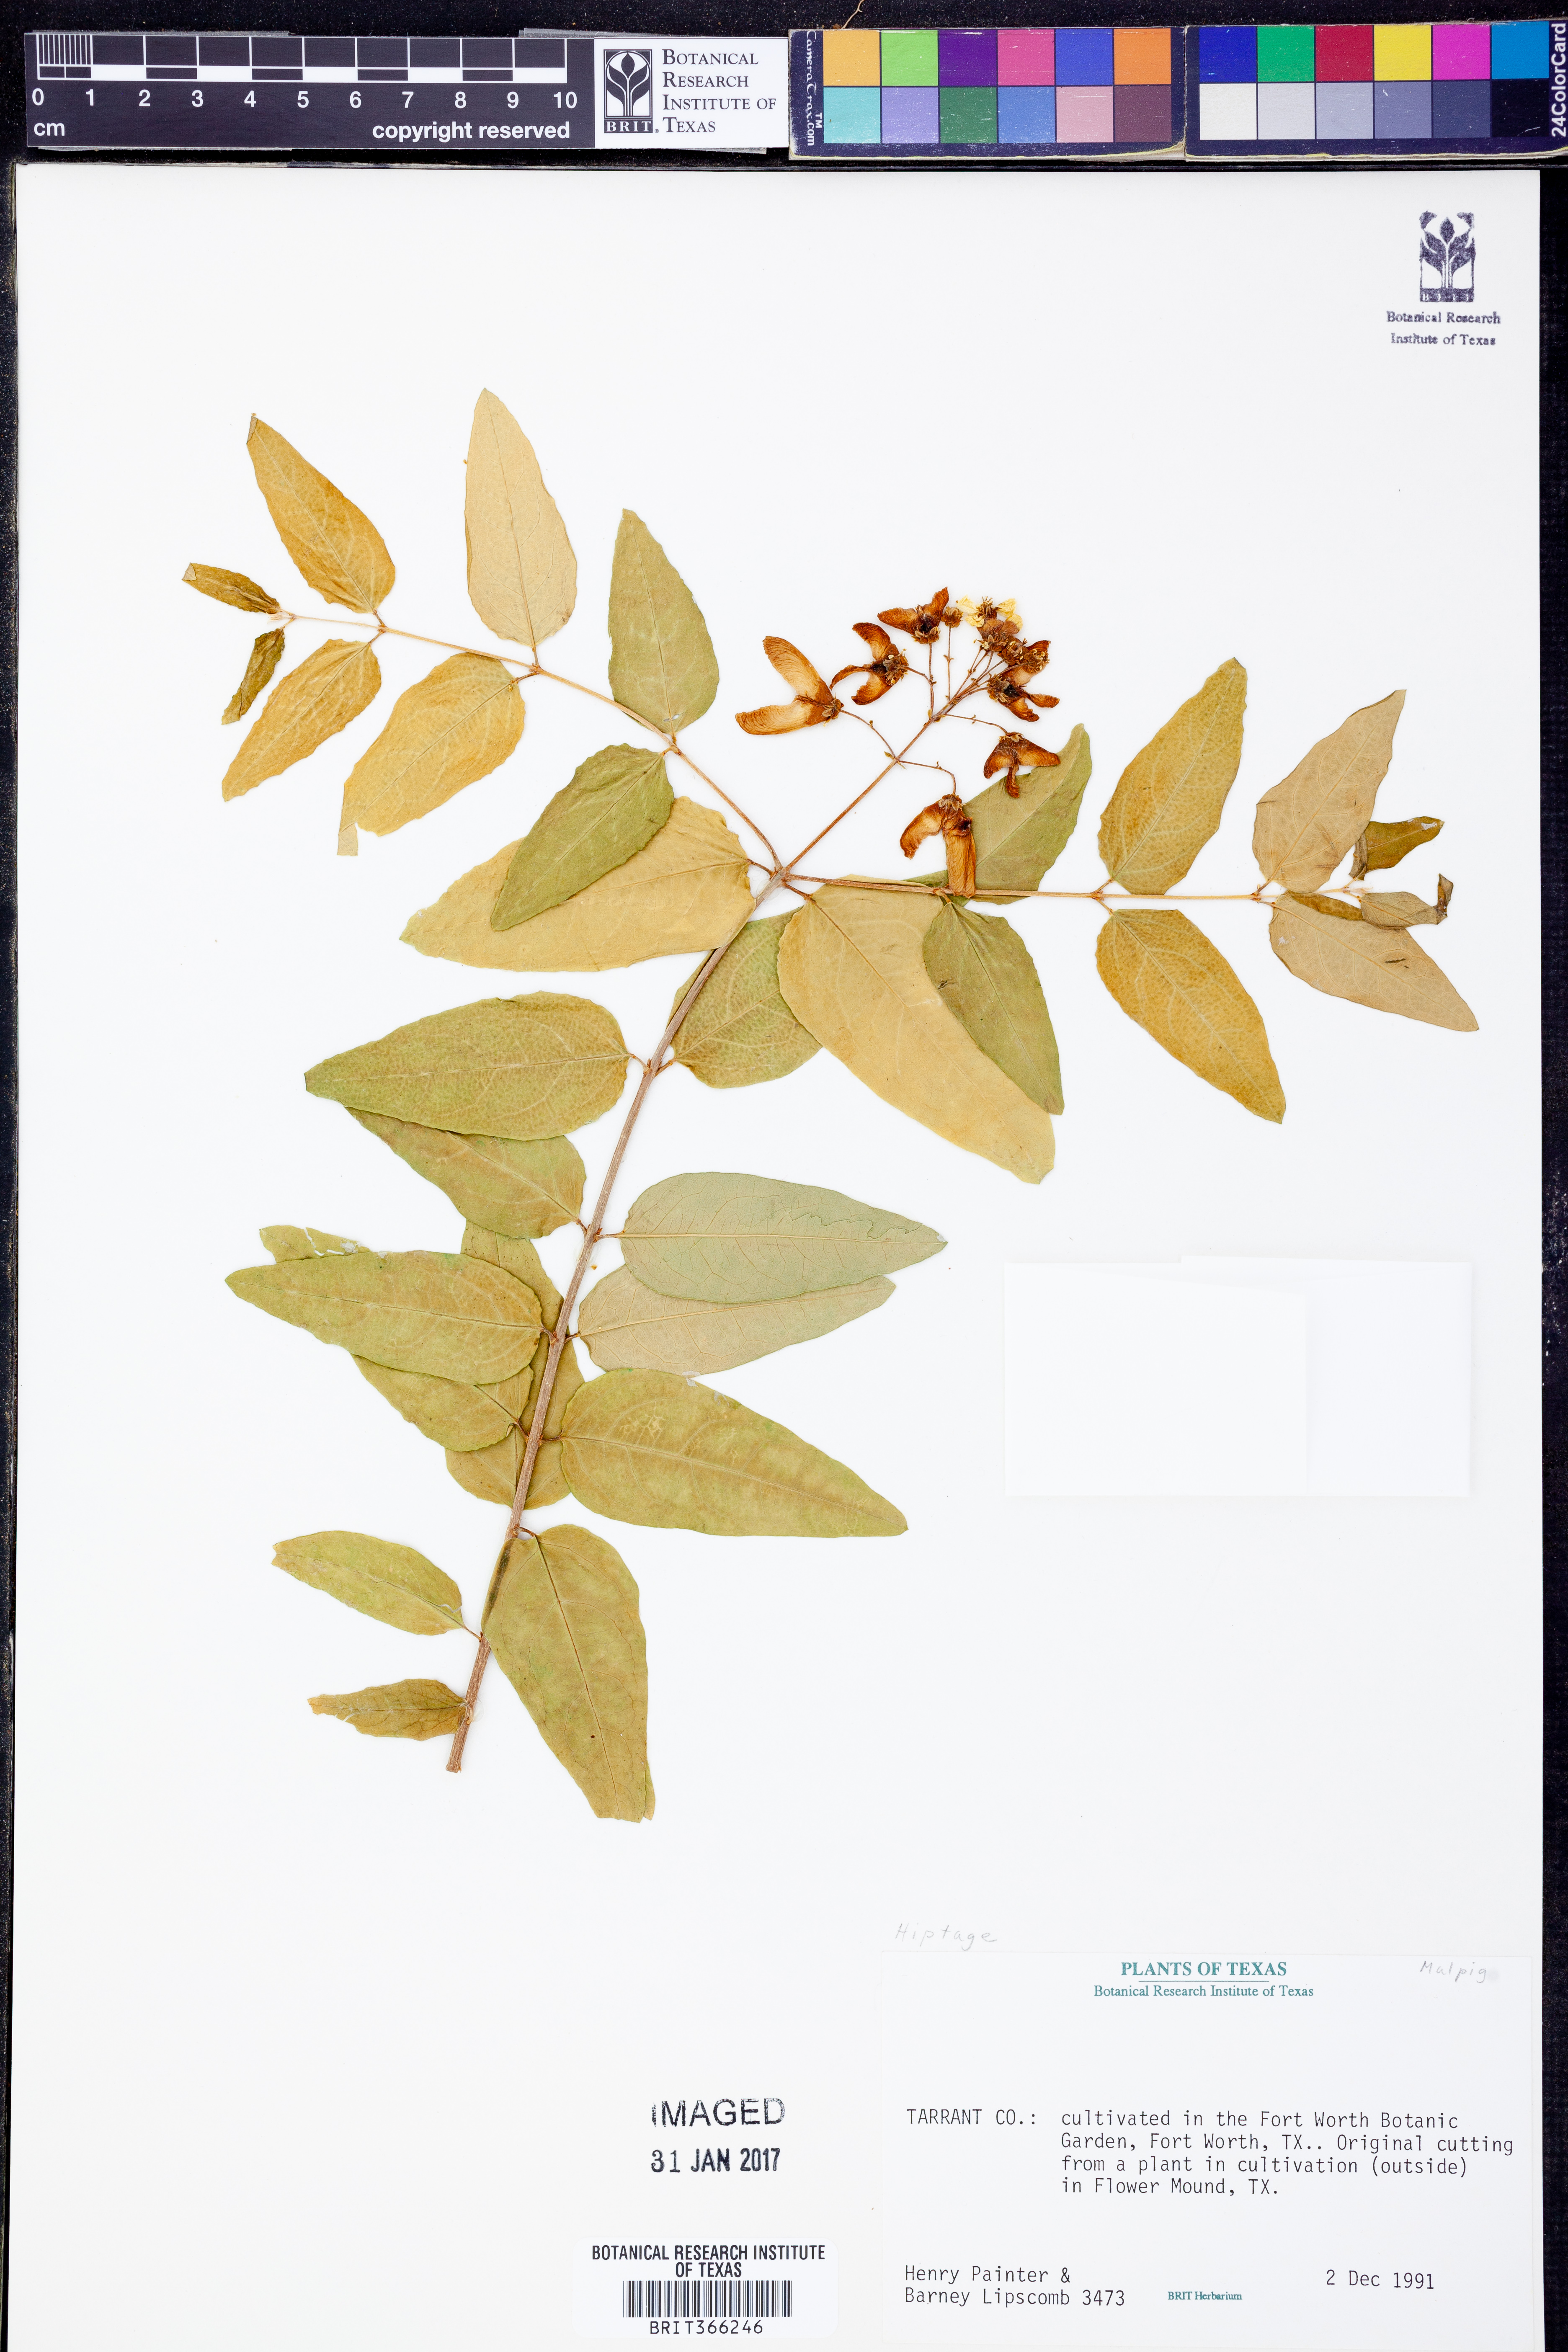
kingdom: Plantae
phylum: Tracheophyta
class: Magnoliopsida
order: Malpighiales
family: Malpighiaceae
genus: Hiptage
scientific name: Hiptage
